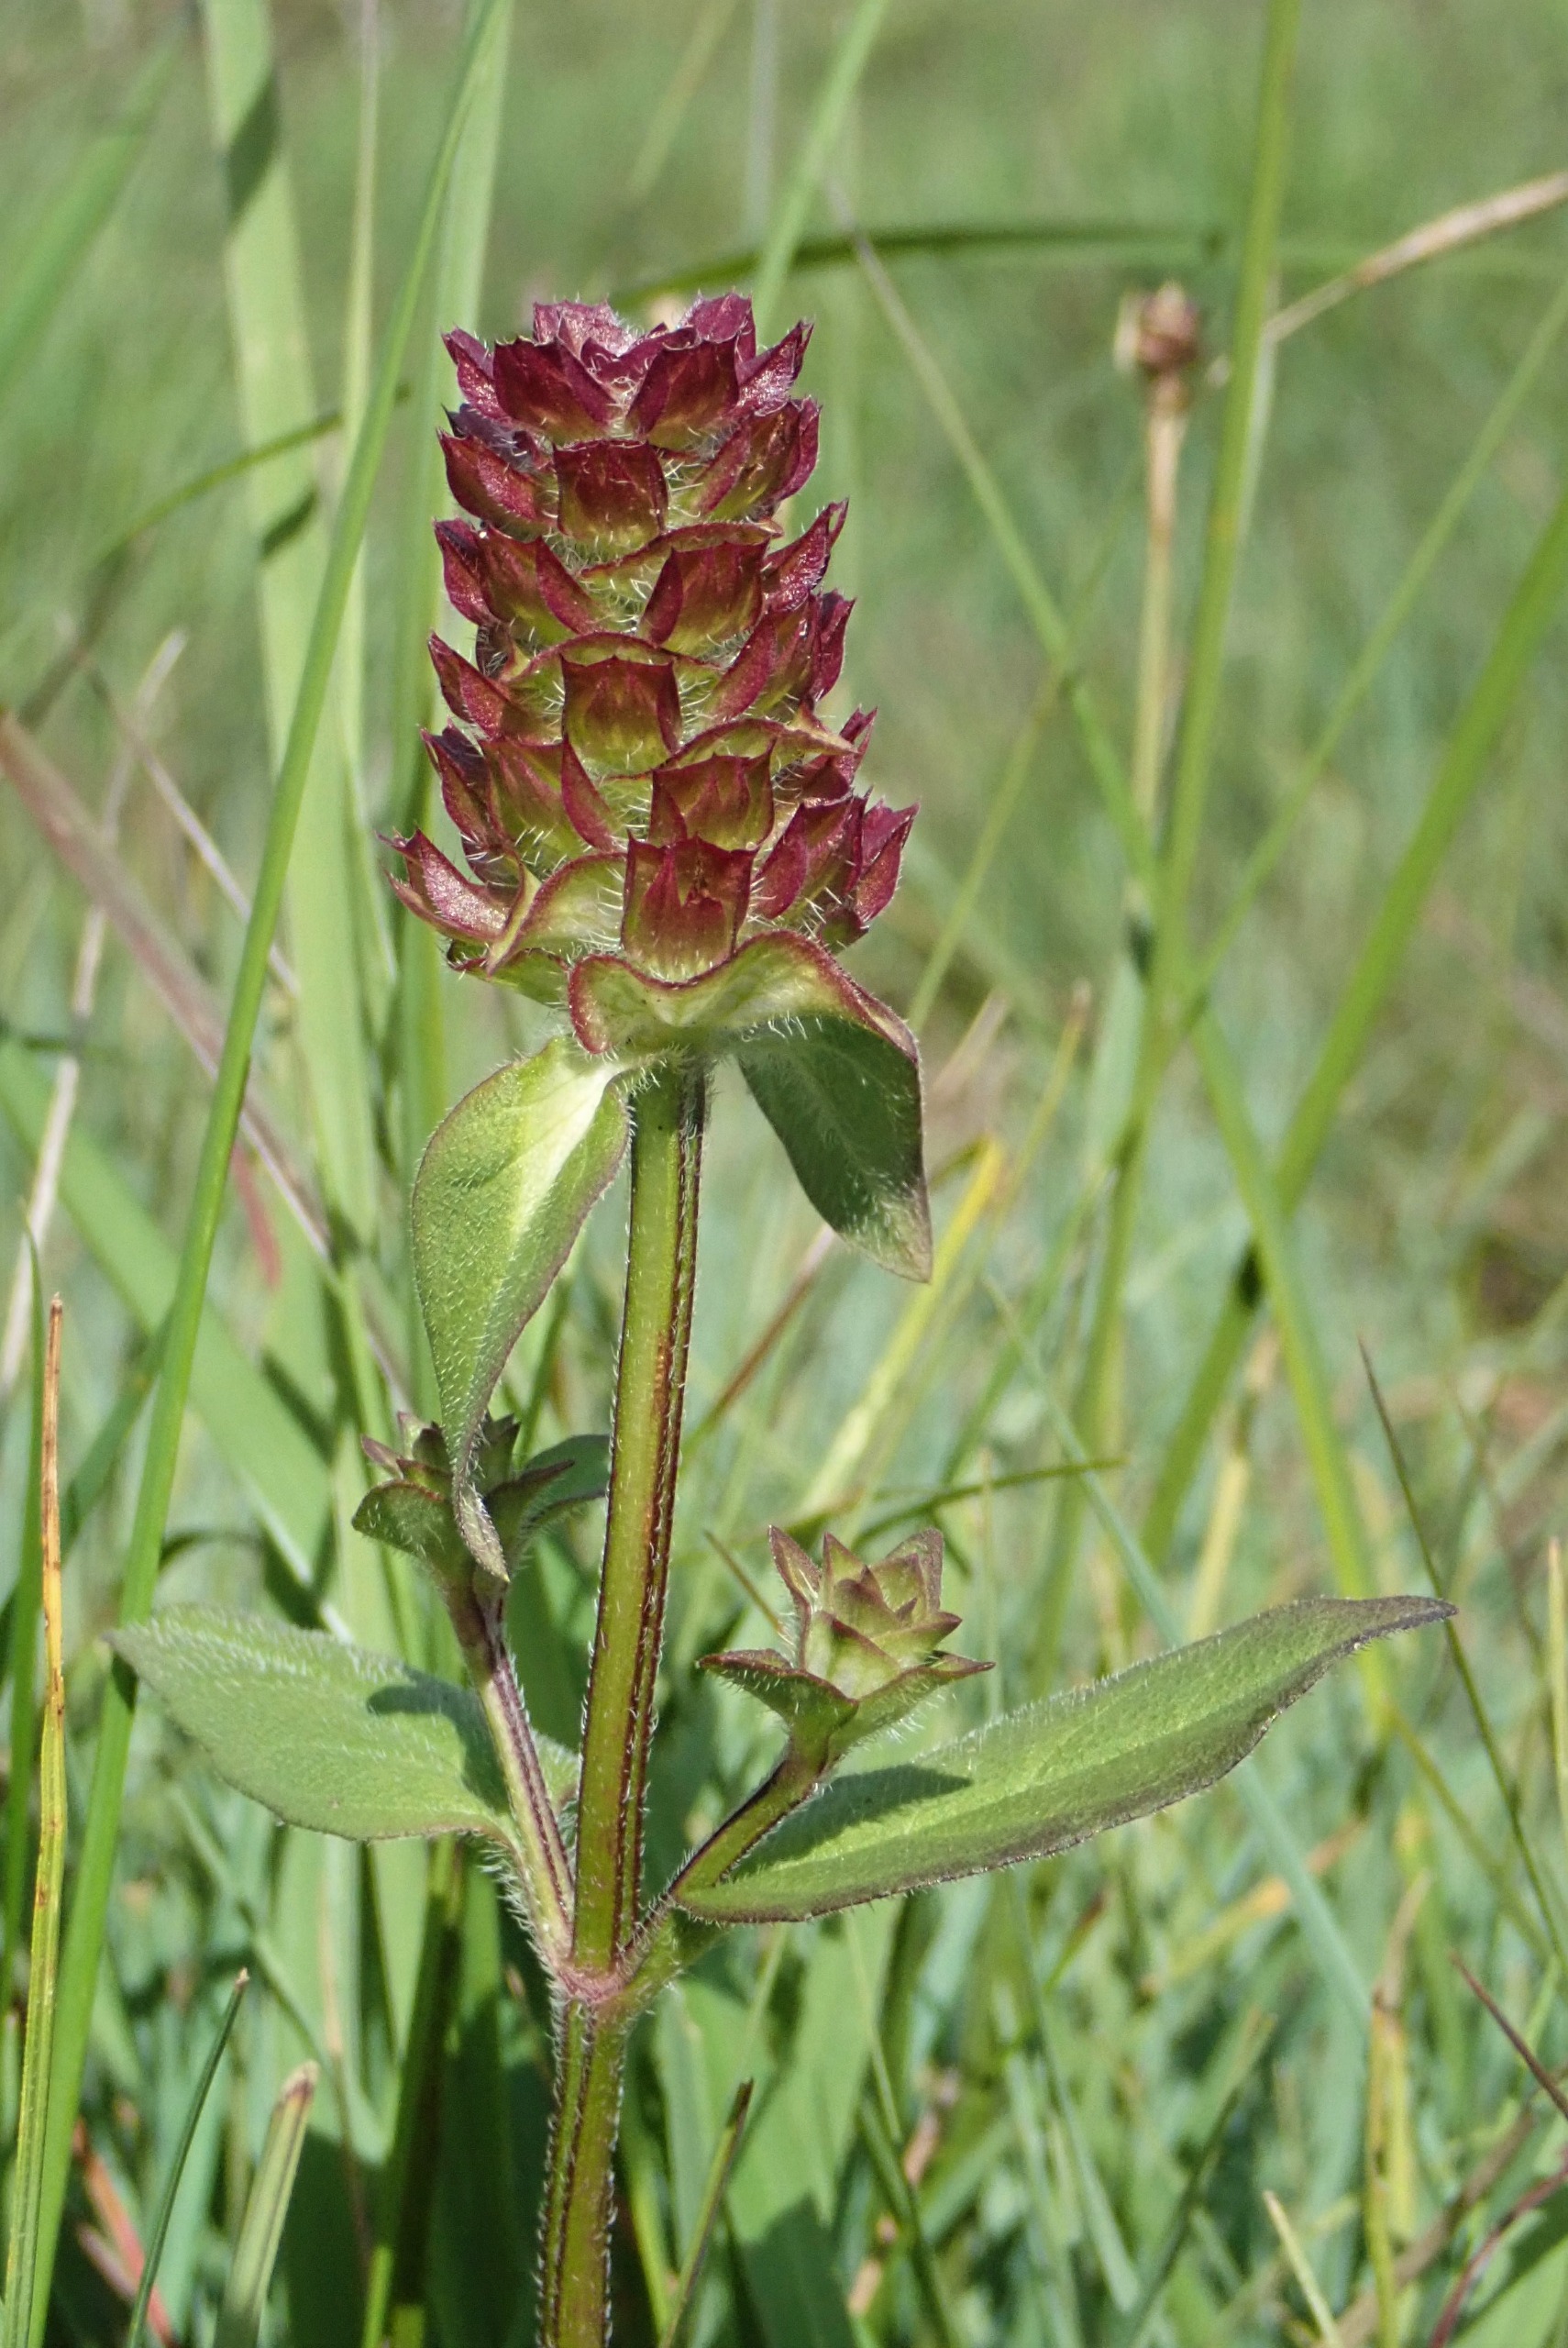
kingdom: Plantae
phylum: Tracheophyta
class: Magnoliopsida
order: Lamiales
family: Lamiaceae
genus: Prunella
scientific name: Prunella vulgaris
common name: Almindelig brunelle
